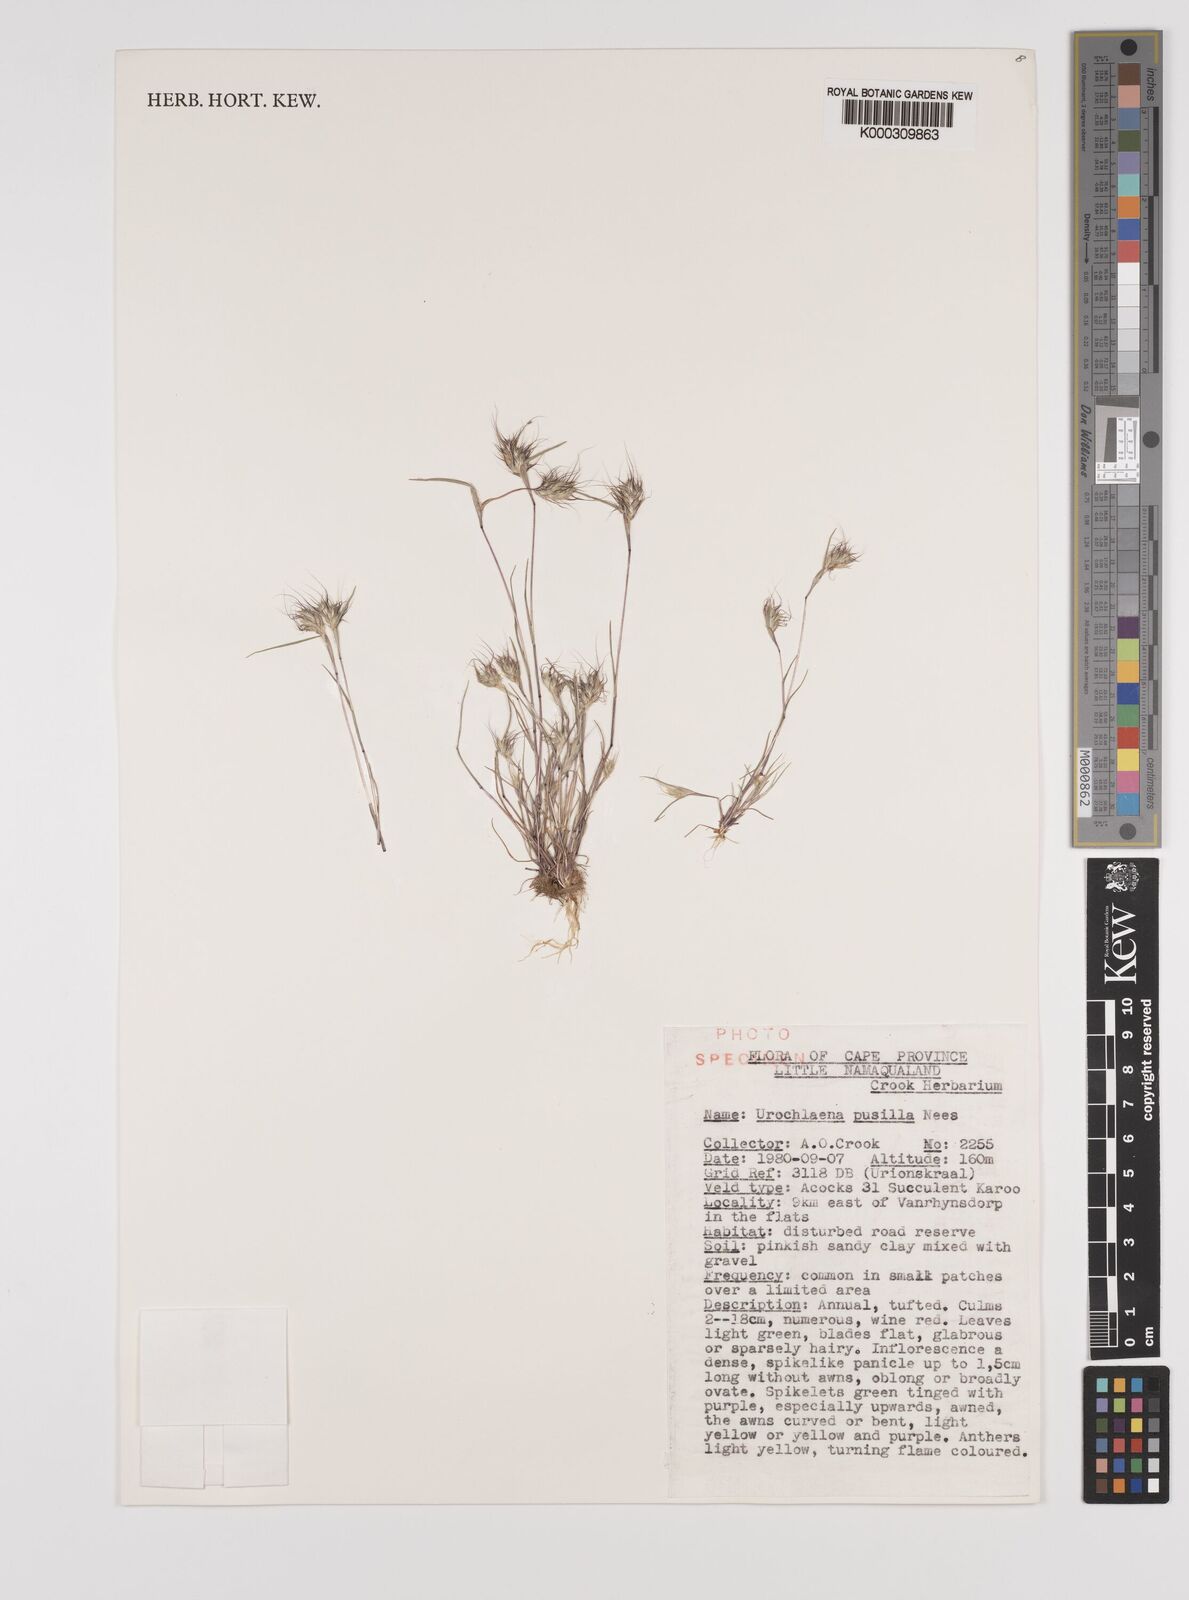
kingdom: Plantae
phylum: Tracheophyta
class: Liliopsida
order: Poales
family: Poaceae
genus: Tribolium
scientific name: Tribolium pusillum
